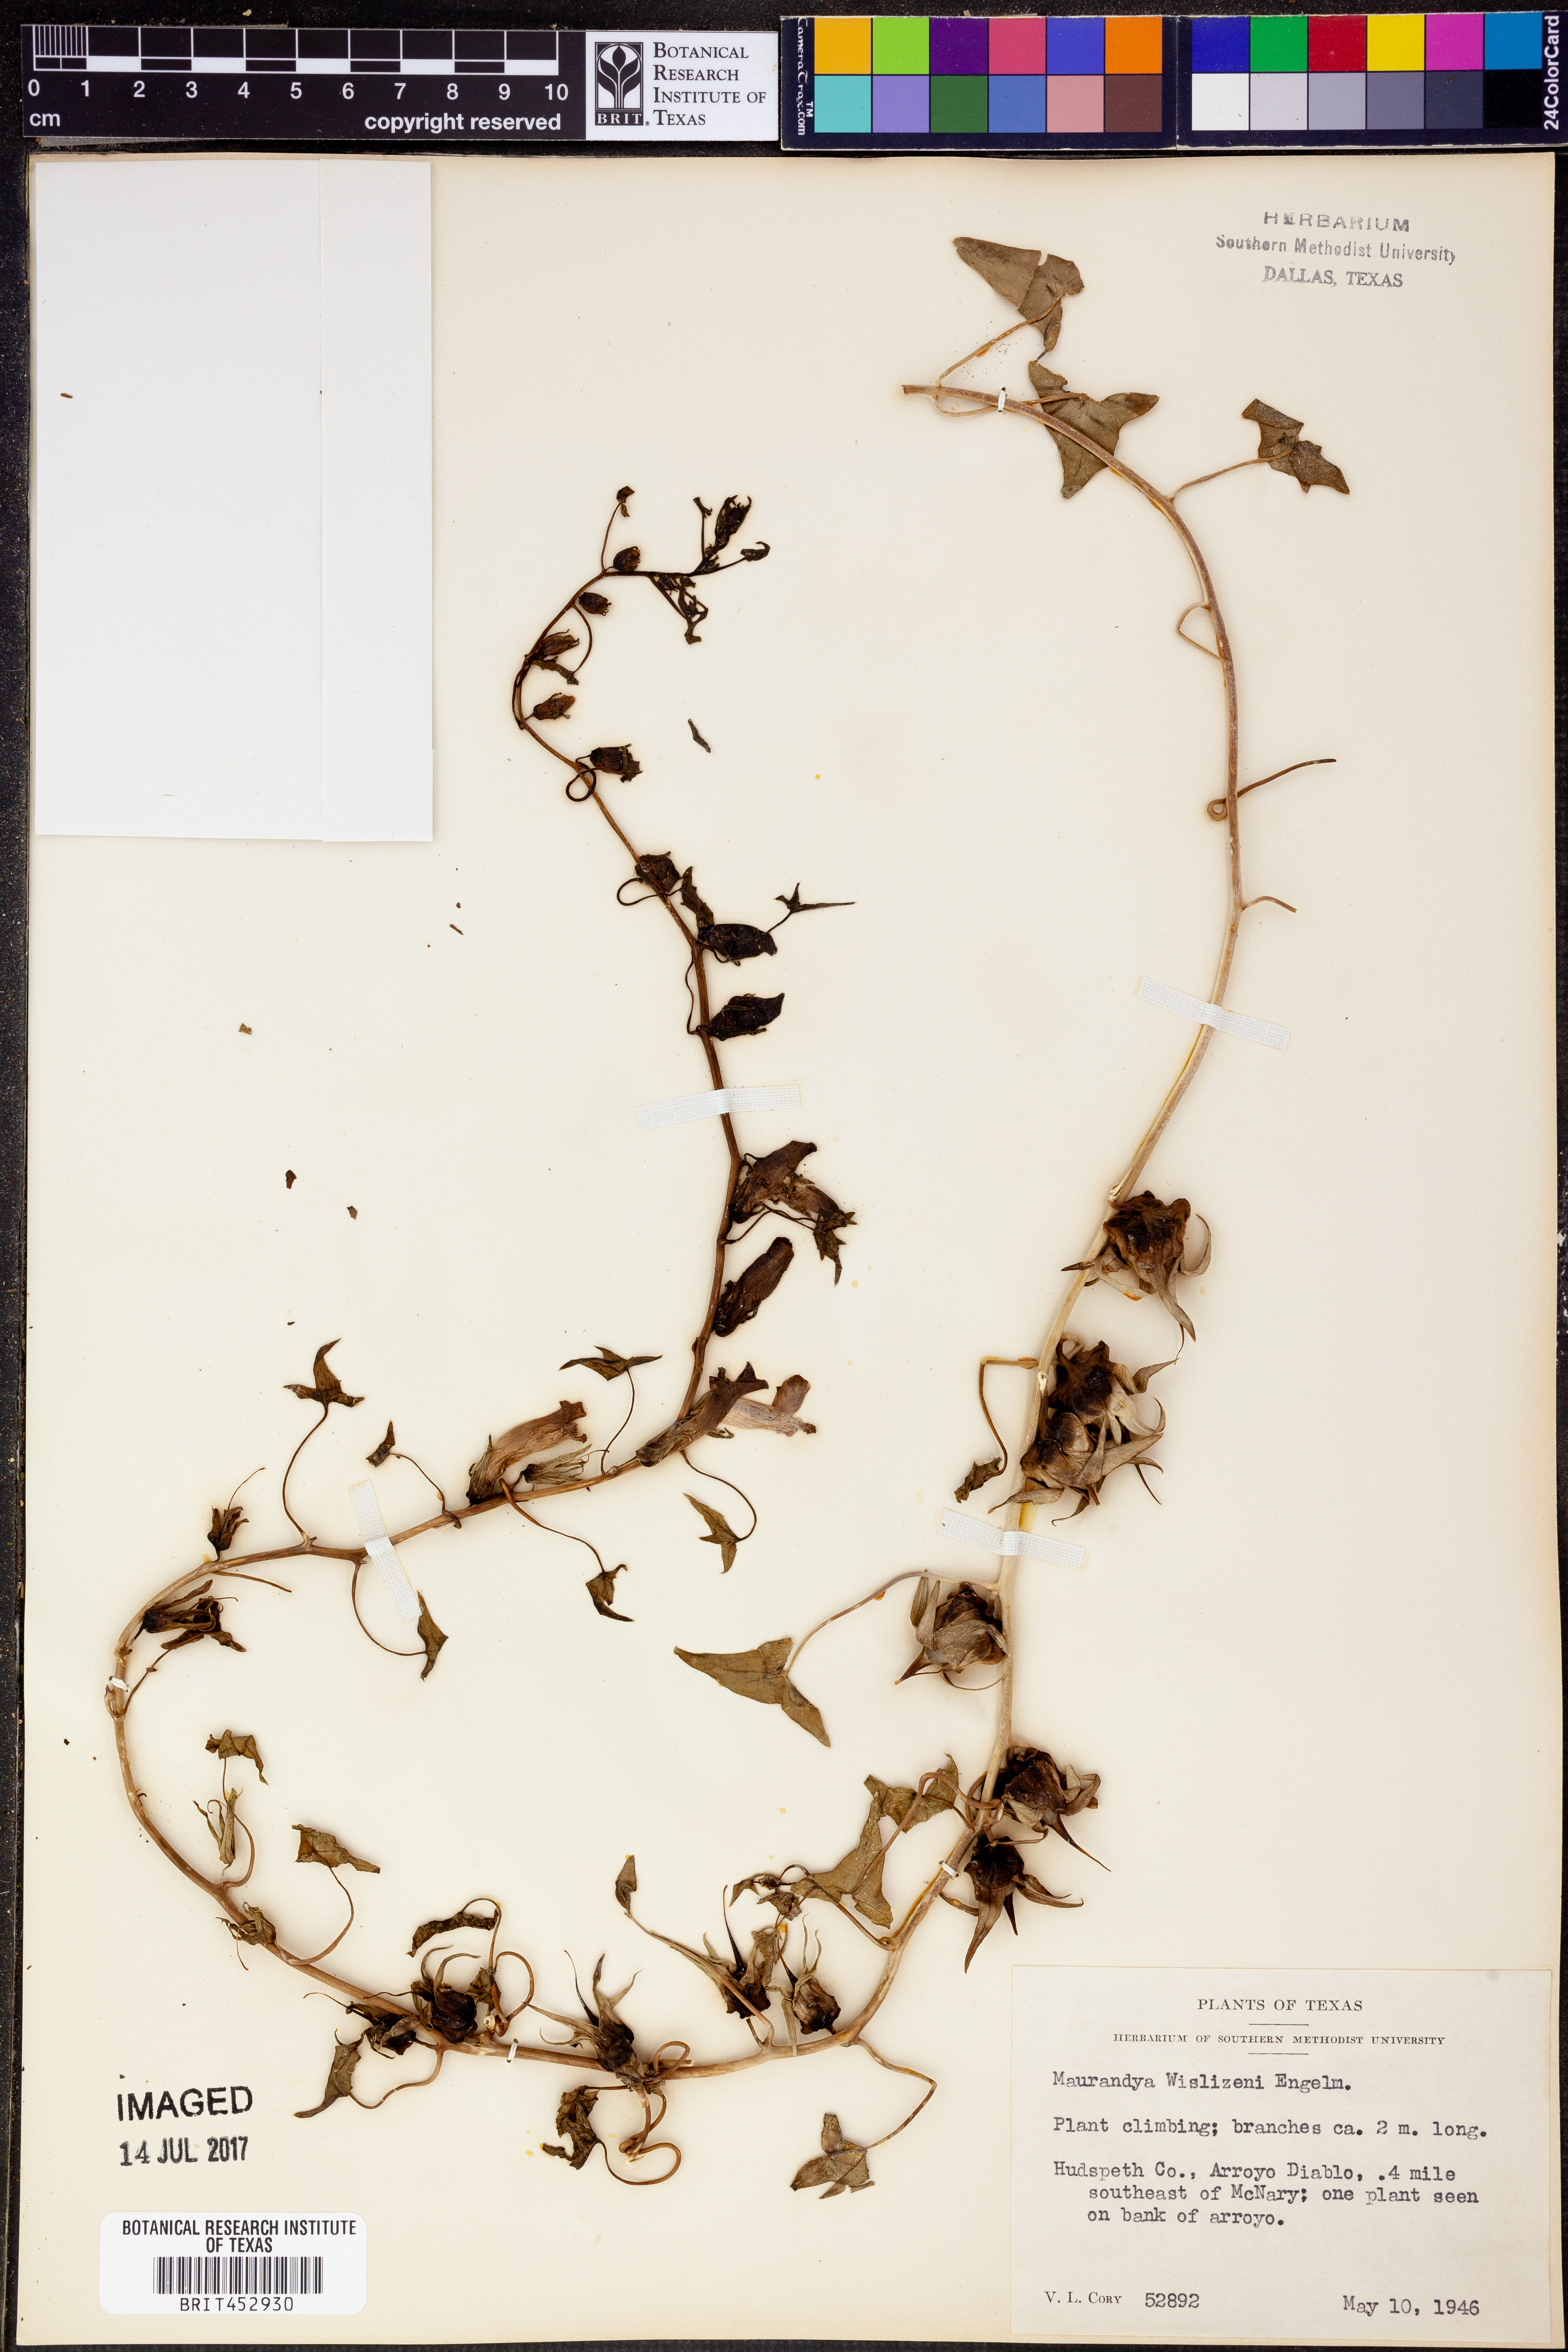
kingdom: Plantae
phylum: Tracheophyta
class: Magnoliopsida
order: Lamiales
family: Plantaginaceae
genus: Epixiphium
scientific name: Epixiphium wislizeni
